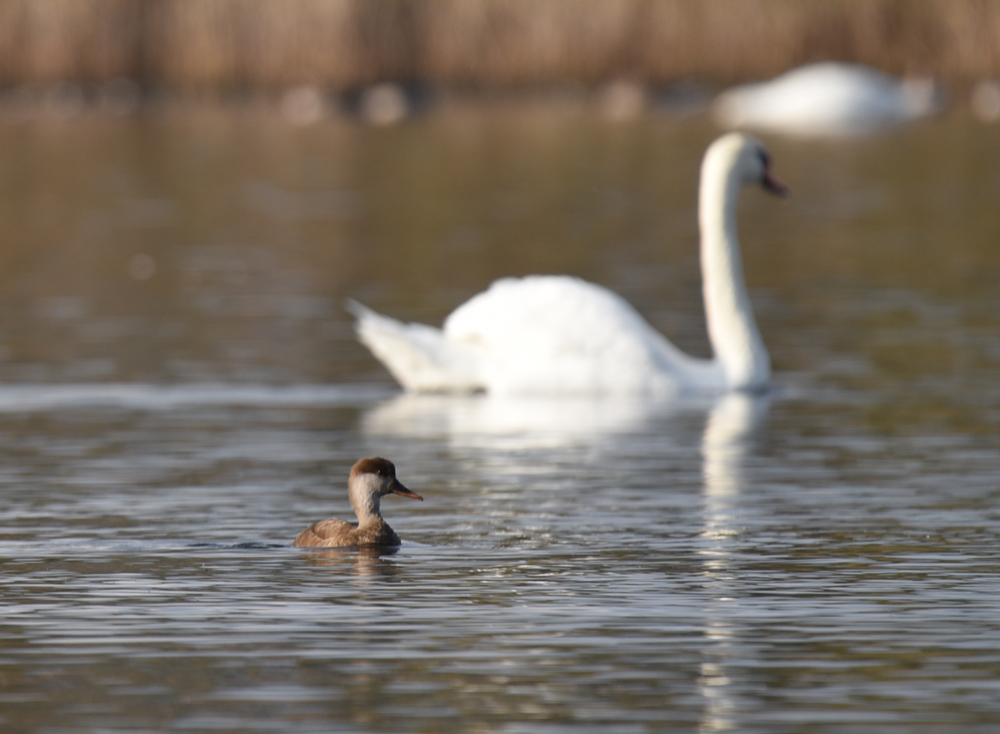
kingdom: Animalia
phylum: Chordata
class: Aves
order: Anseriformes
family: Anatidae
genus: Netta
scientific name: Netta rufina
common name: Red-crested pochard
